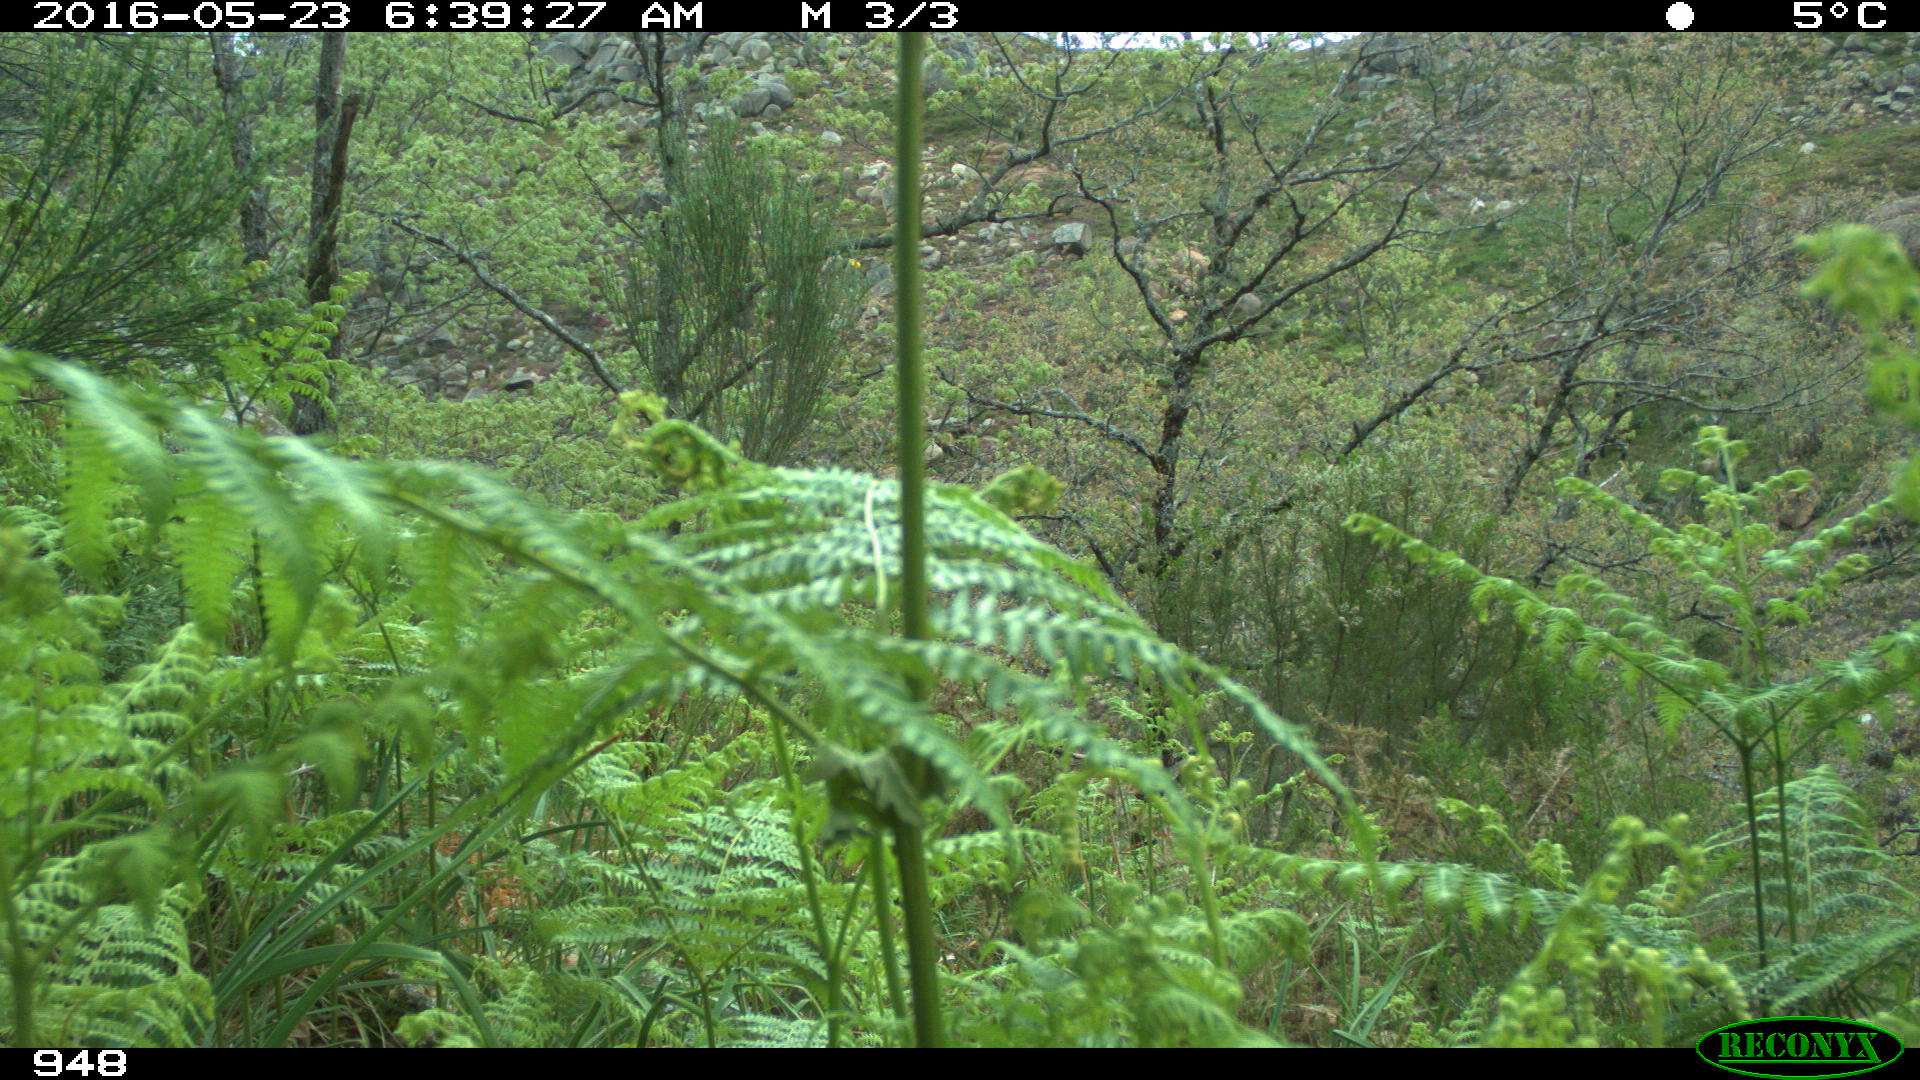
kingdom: Animalia
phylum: Chordata
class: Mammalia
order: Perissodactyla
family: Equidae
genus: Equus
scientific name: Equus caballus
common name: Horse
